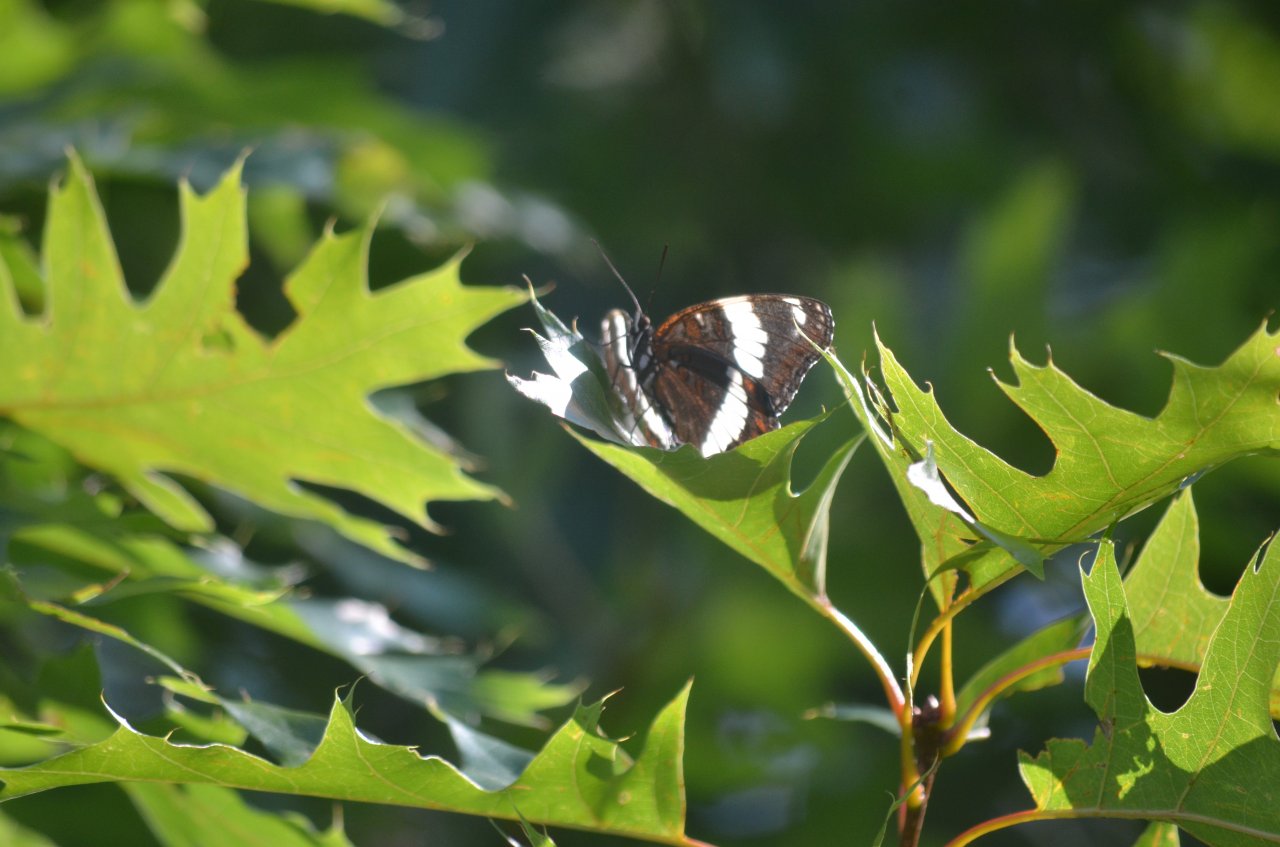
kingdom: Animalia
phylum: Arthropoda
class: Insecta
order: Lepidoptera
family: Nymphalidae
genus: Limenitis
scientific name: Limenitis arthemis
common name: Red-spotted Admiral
